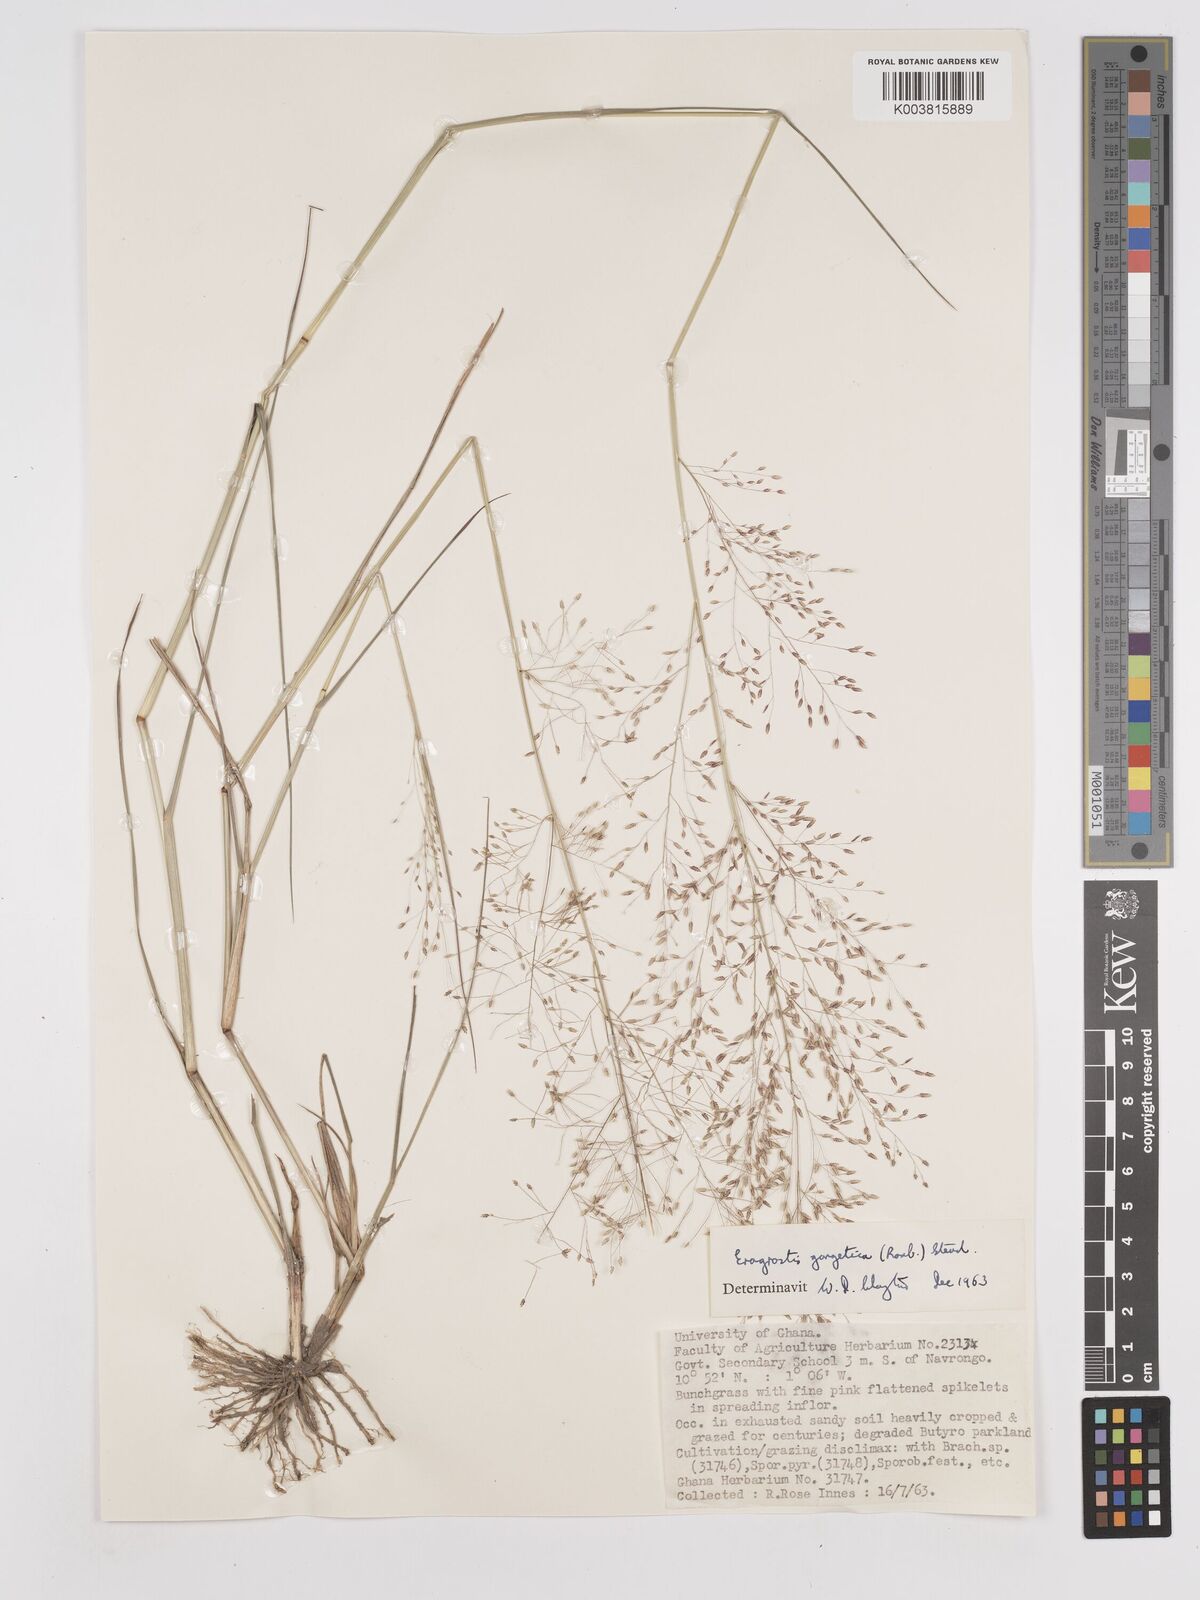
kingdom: Plantae
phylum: Tracheophyta
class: Liliopsida
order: Poales
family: Poaceae
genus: Eragrostis
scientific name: Eragrostis gangetica
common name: Slimflower lovegrass
